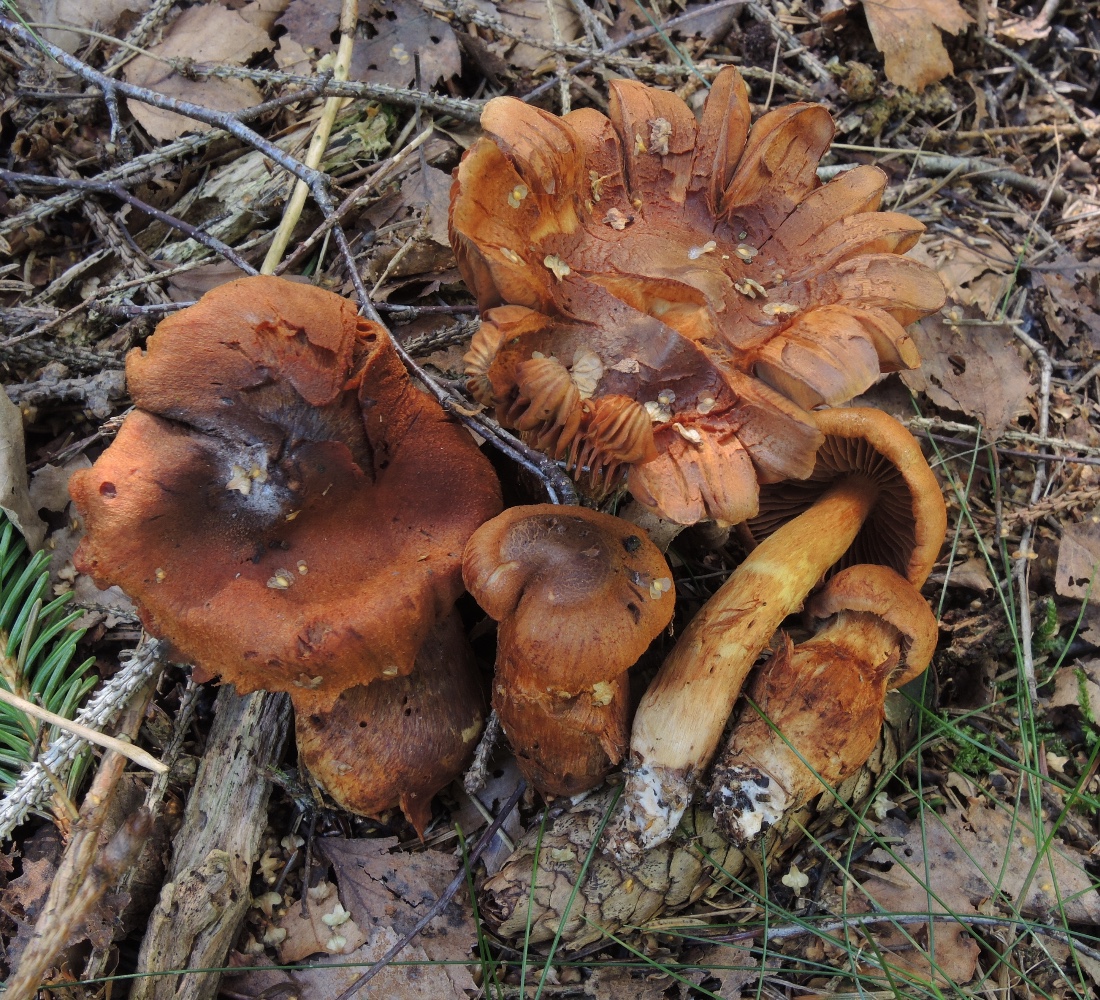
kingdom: Fungi
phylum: Basidiomycota
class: Agaricomycetes
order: Agaricales
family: Cortinariaceae
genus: Aureonarius
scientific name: Aureonarius limonius
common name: orangegul slørhat
